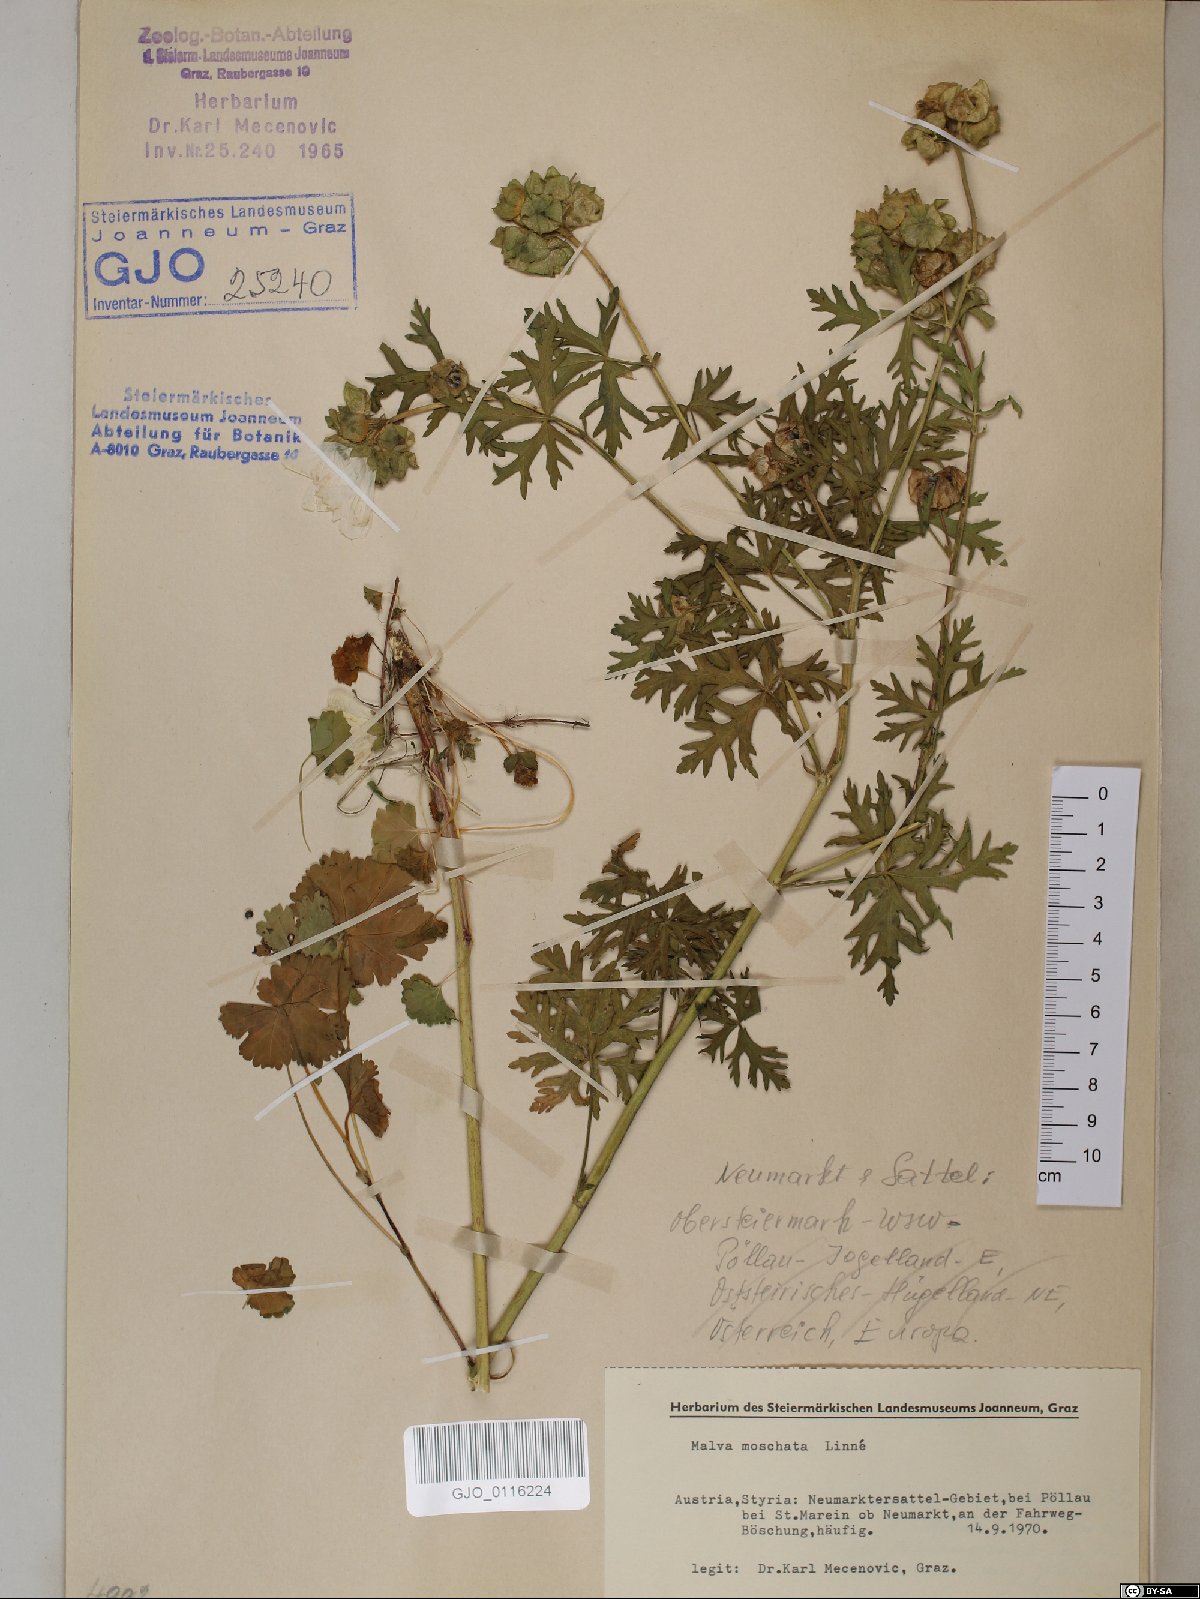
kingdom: Plantae
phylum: Tracheophyta
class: Magnoliopsida
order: Malvales
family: Malvaceae
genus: Malva
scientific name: Malva moschata
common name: Musk mallow
